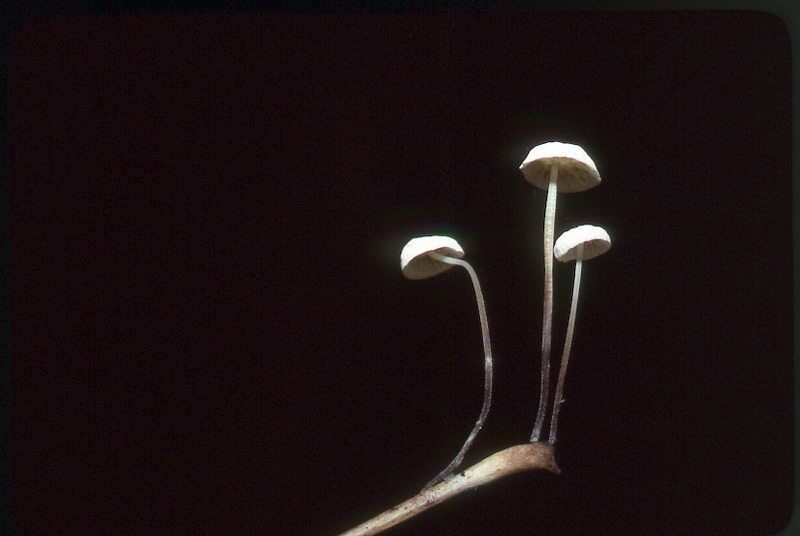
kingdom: Fungi
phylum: Basidiomycota
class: Agaricomycetes
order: Agaricales
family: Marasmiaceae
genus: Marasmius
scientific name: Marasmius epiphyllus
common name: Leaf parachute
